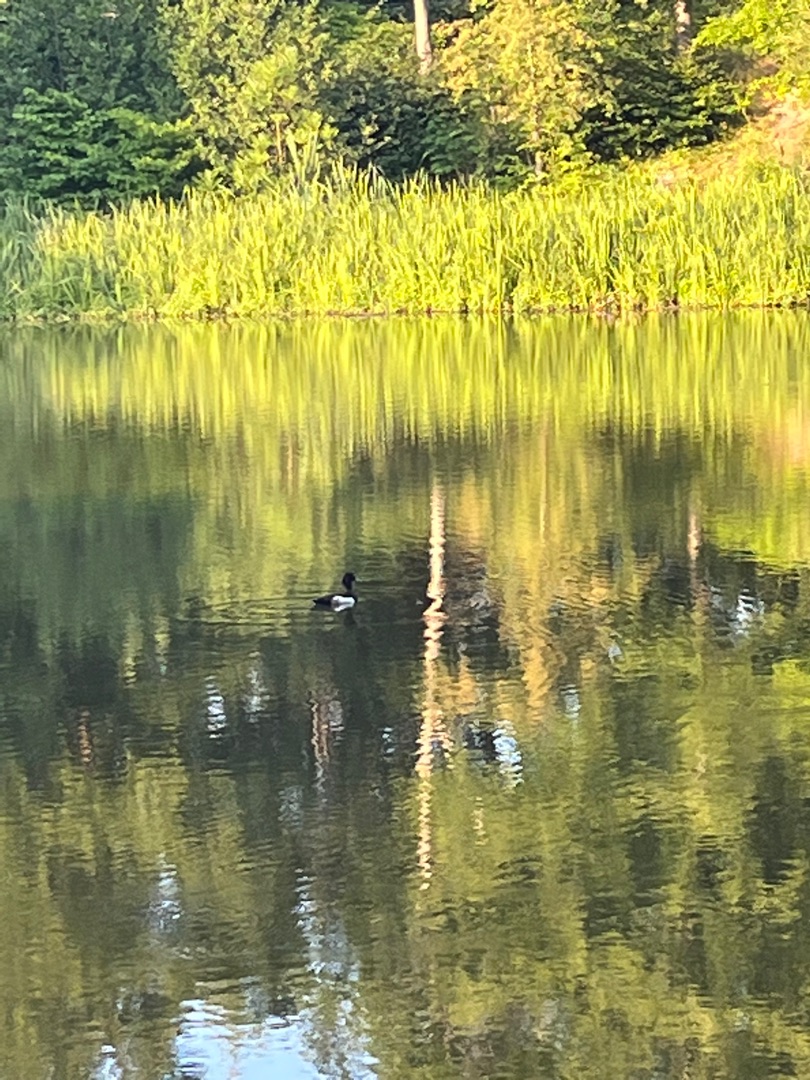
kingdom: Animalia
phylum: Chordata
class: Aves
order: Anseriformes
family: Anatidae
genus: Aythya
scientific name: Aythya fuligula
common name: Troldand
